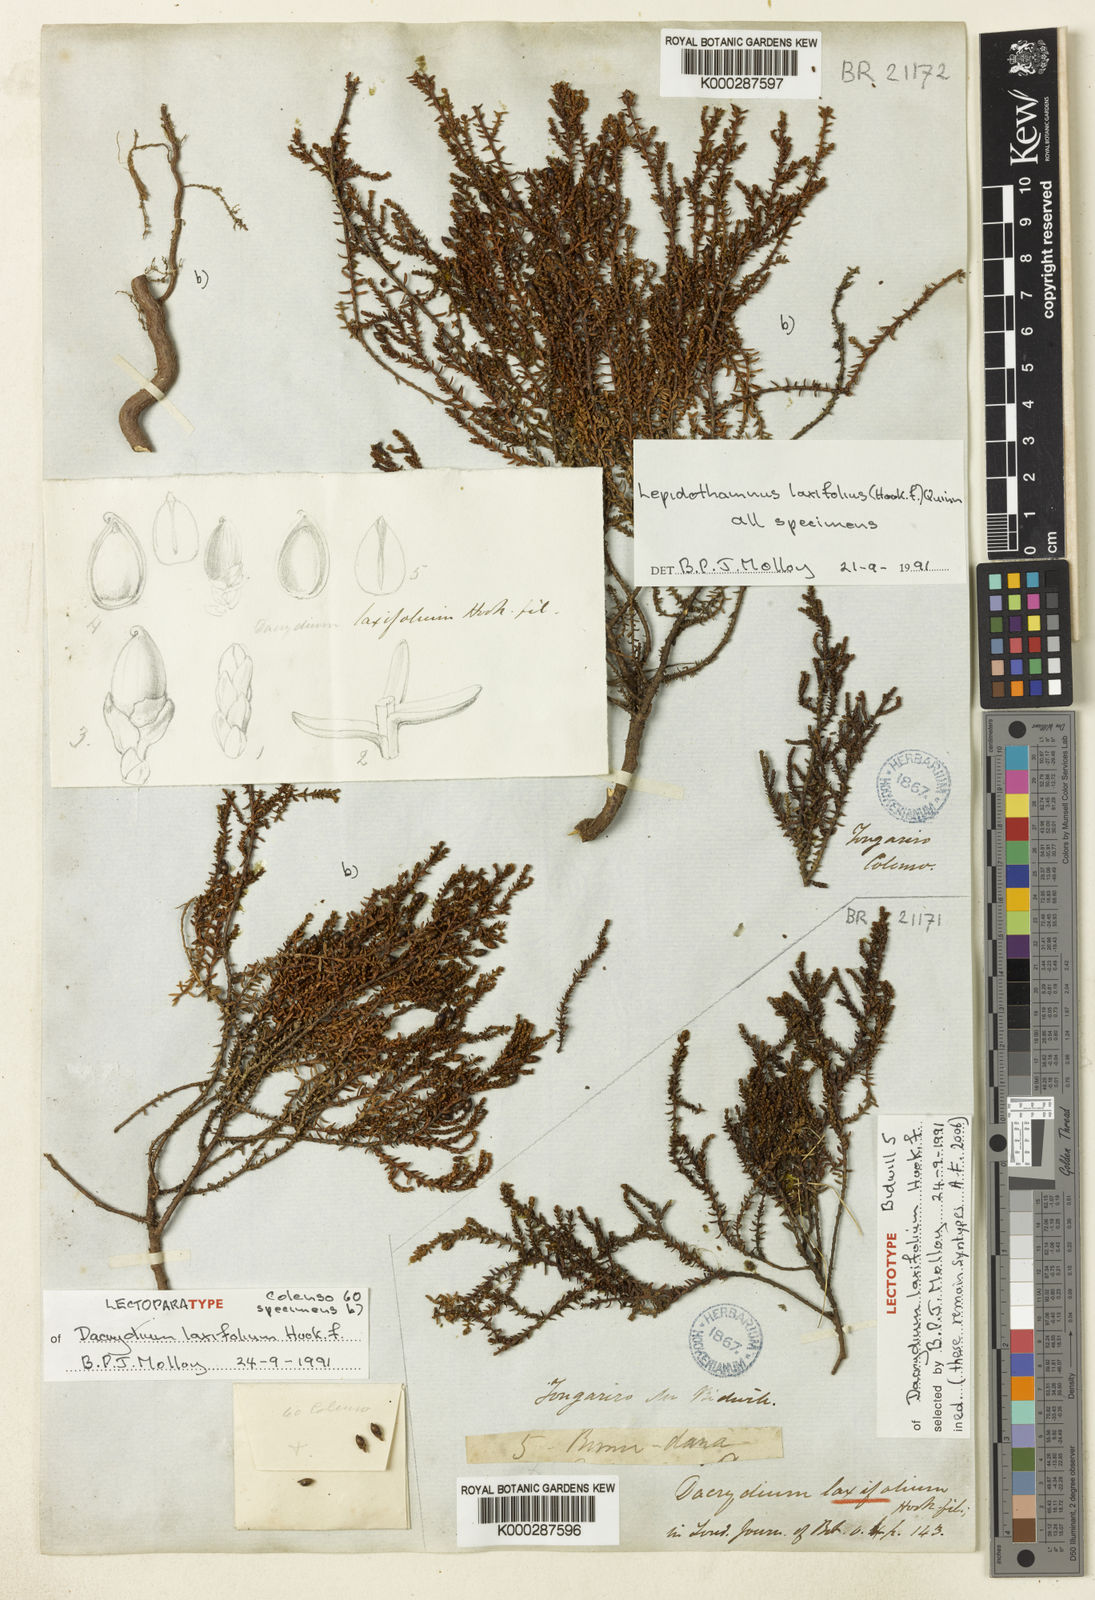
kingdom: Plantae
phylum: Tracheophyta
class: Pinopsida
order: Pinales
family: Podocarpaceae
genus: Lepidothamnus
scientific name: Lepidothamnus laxifolius
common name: Pygmy pine
